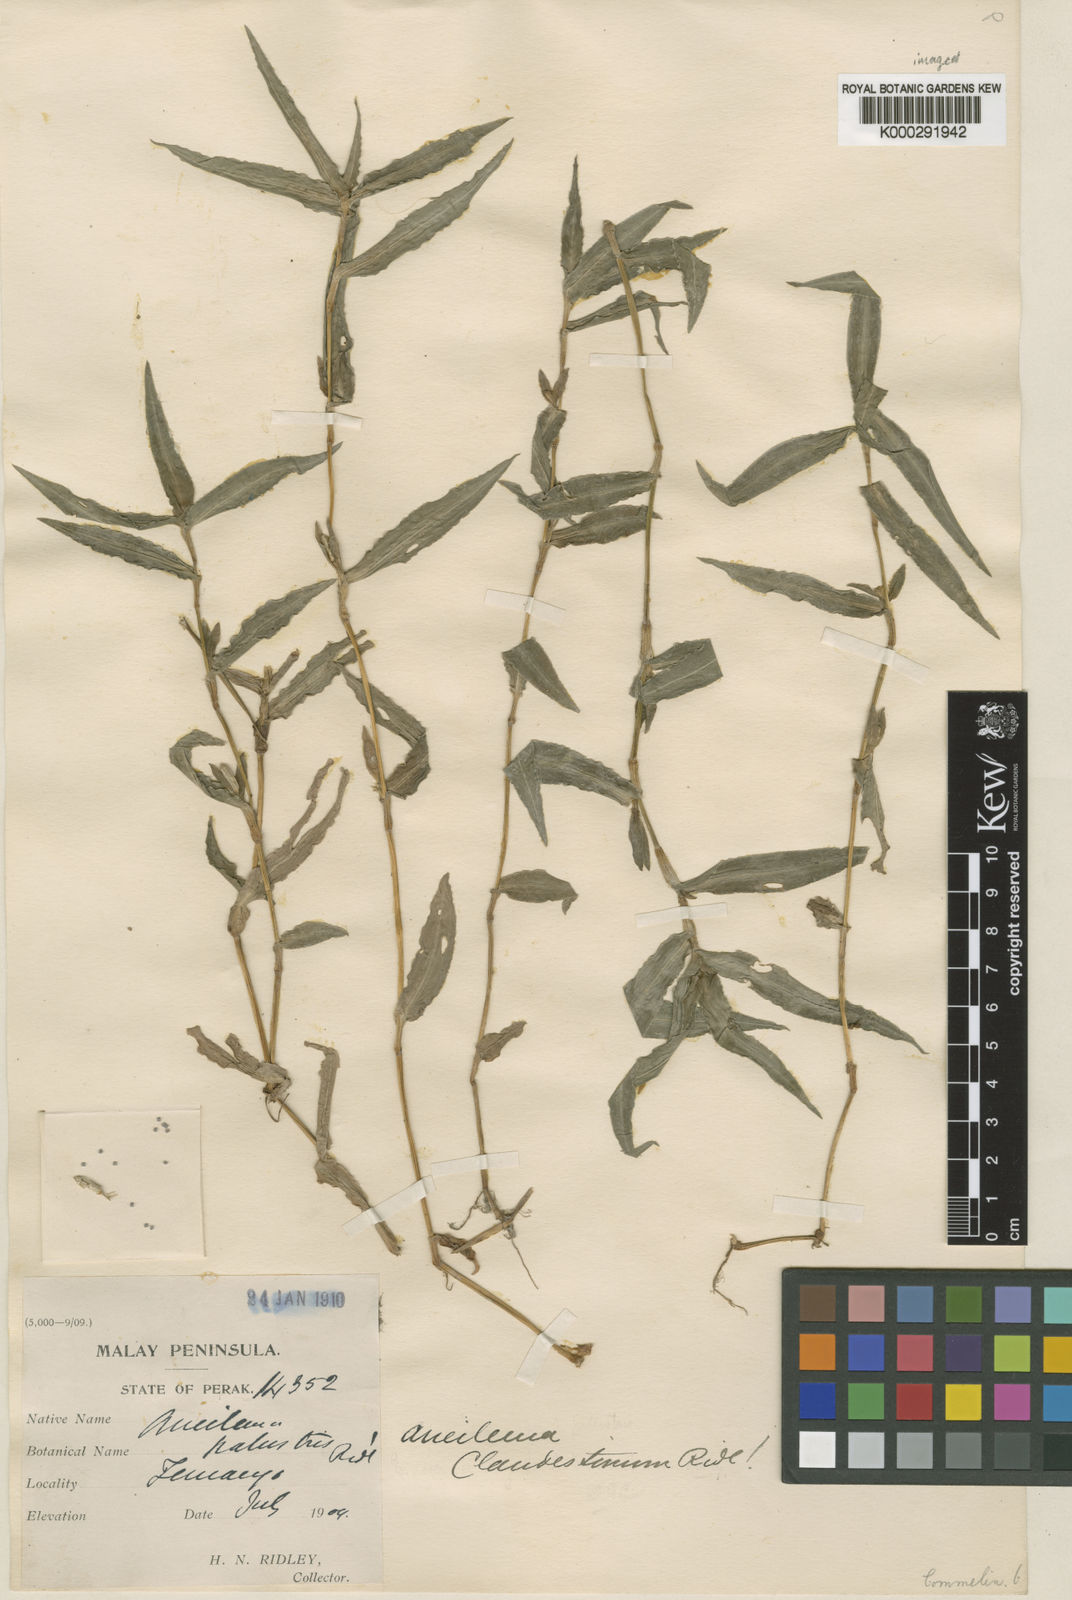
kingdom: Plantae
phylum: Tracheophyta
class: Liliopsida
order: Commelinales
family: Commelinaceae
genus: Murdannia
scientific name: Murdannia clandestina
